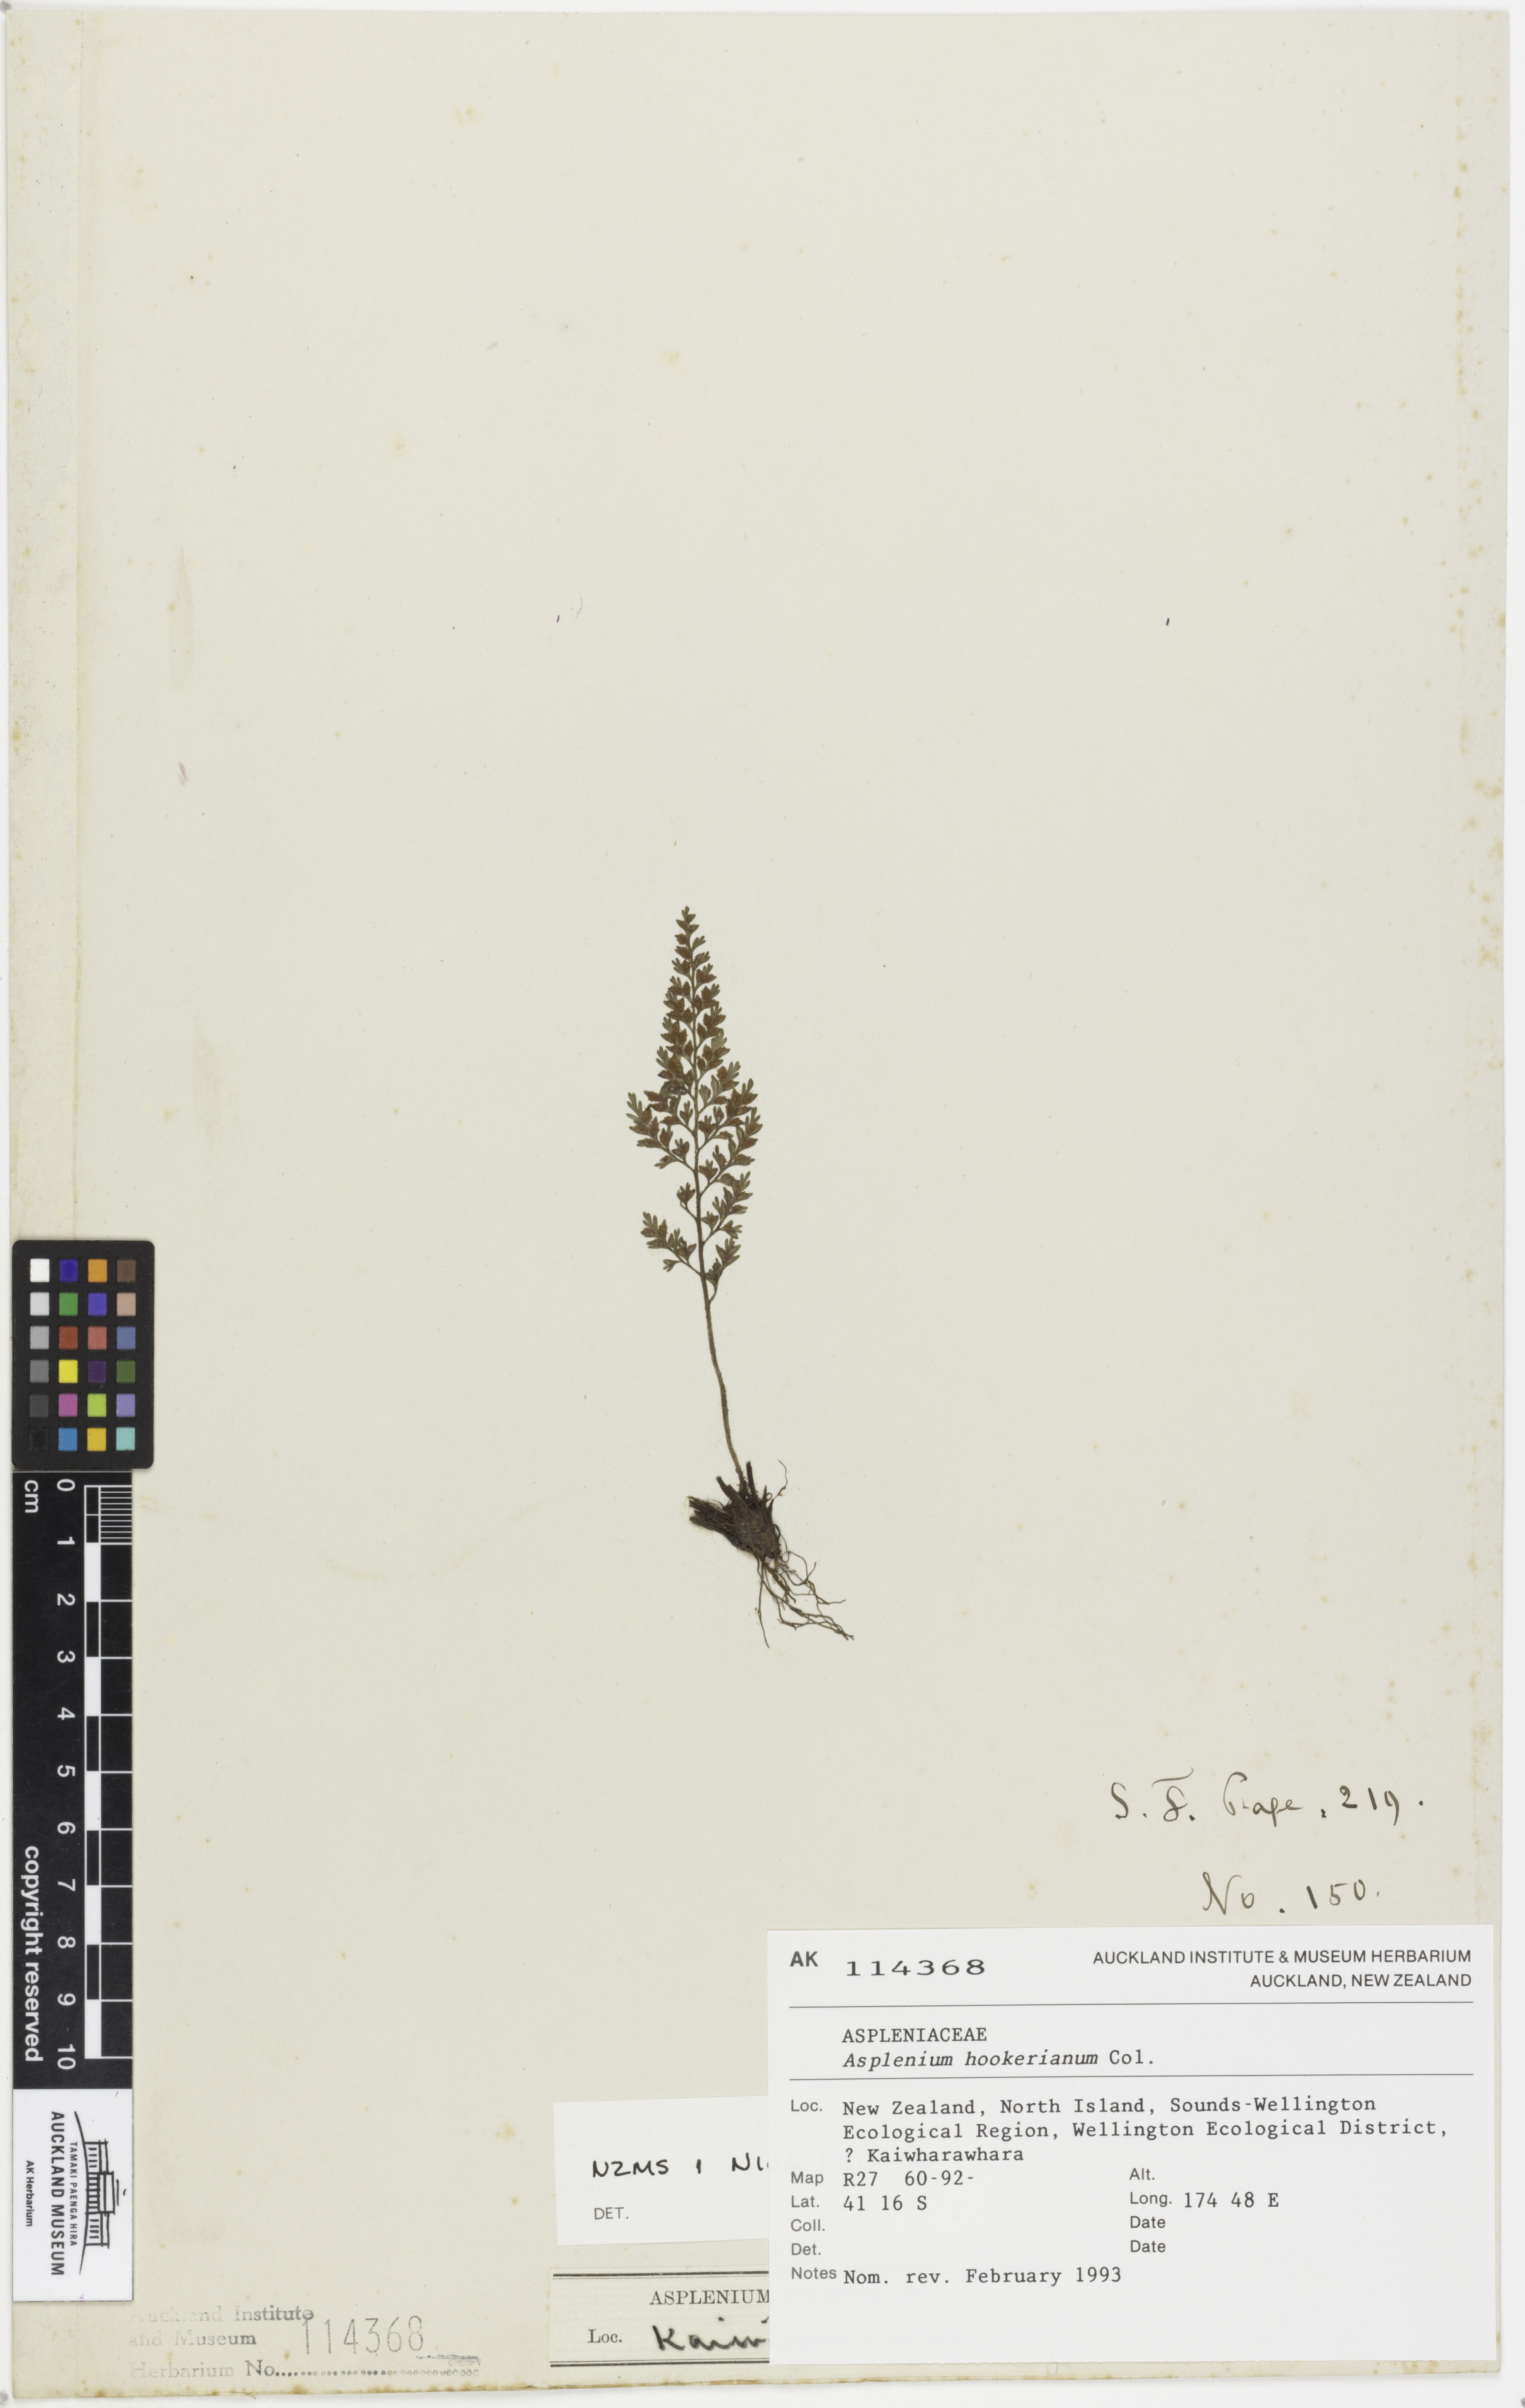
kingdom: Plantae
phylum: Tracheophyta
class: Polypodiopsida
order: Polypodiales
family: Aspleniaceae
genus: Asplenium
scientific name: Asplenium hookerianum
